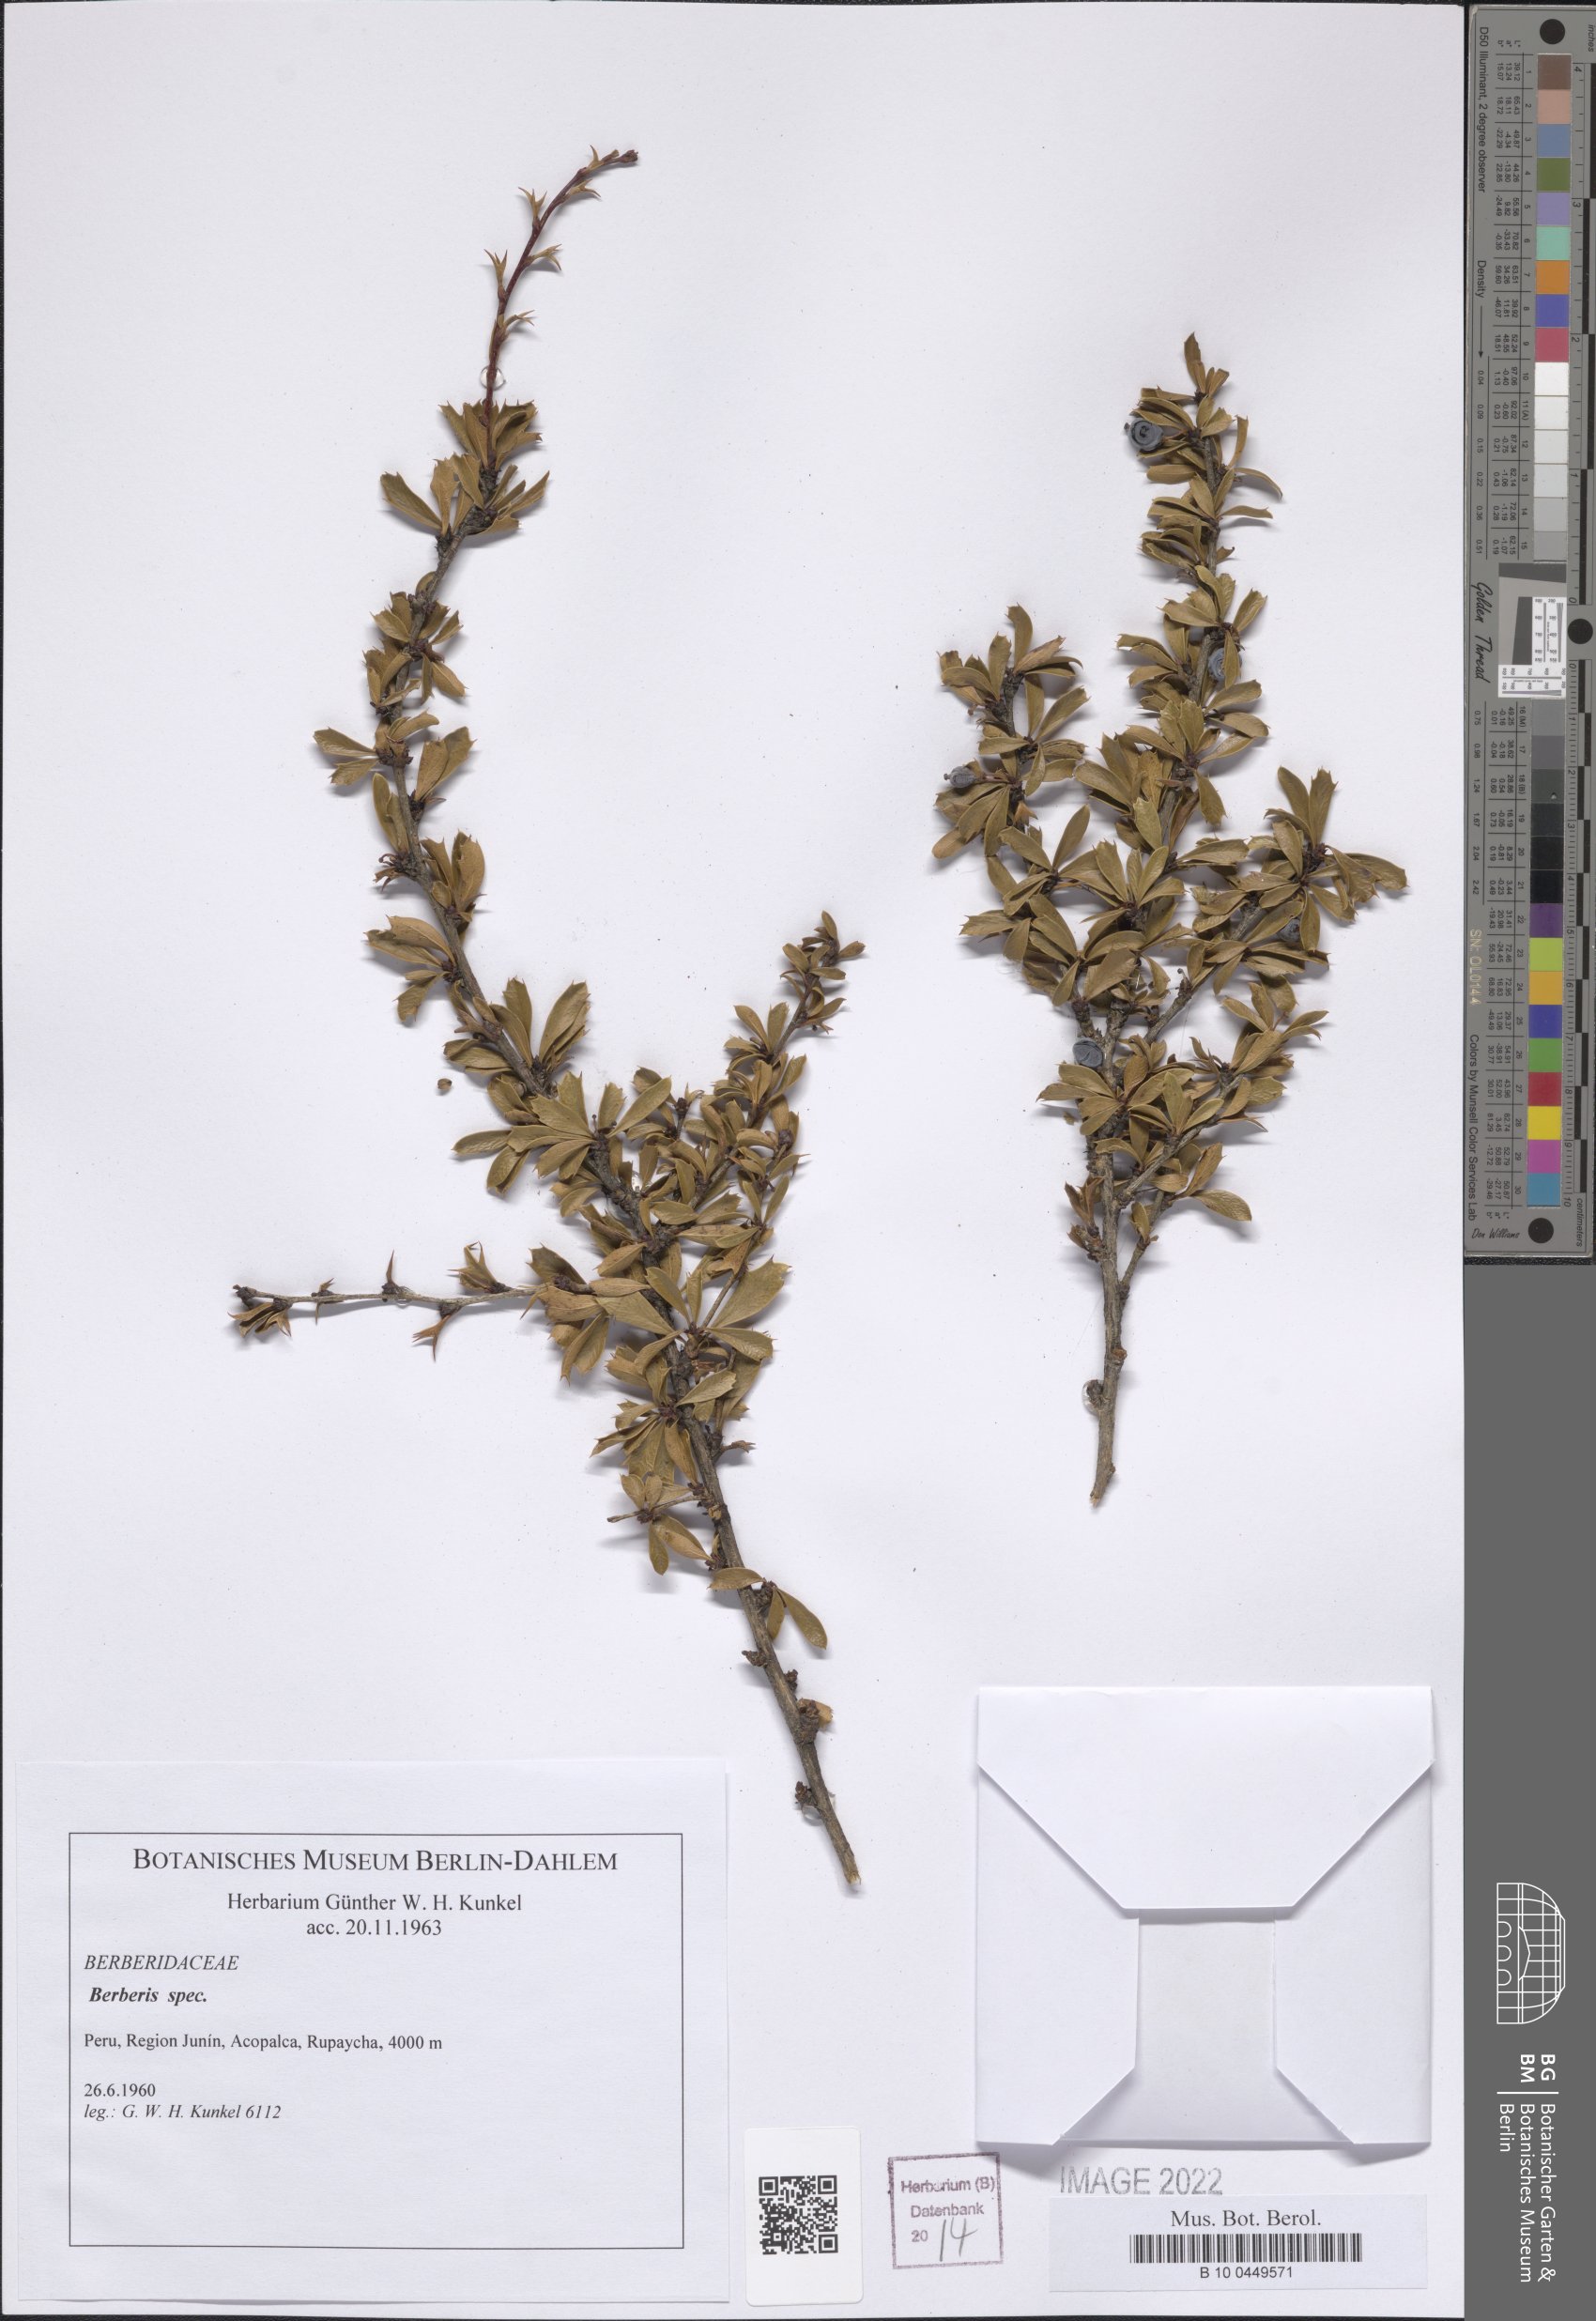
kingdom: Plantae
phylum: Tracheophyta
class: Magnoliopsida
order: Ranunculales
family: Berberidaceae
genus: Berberis
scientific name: Berberis
